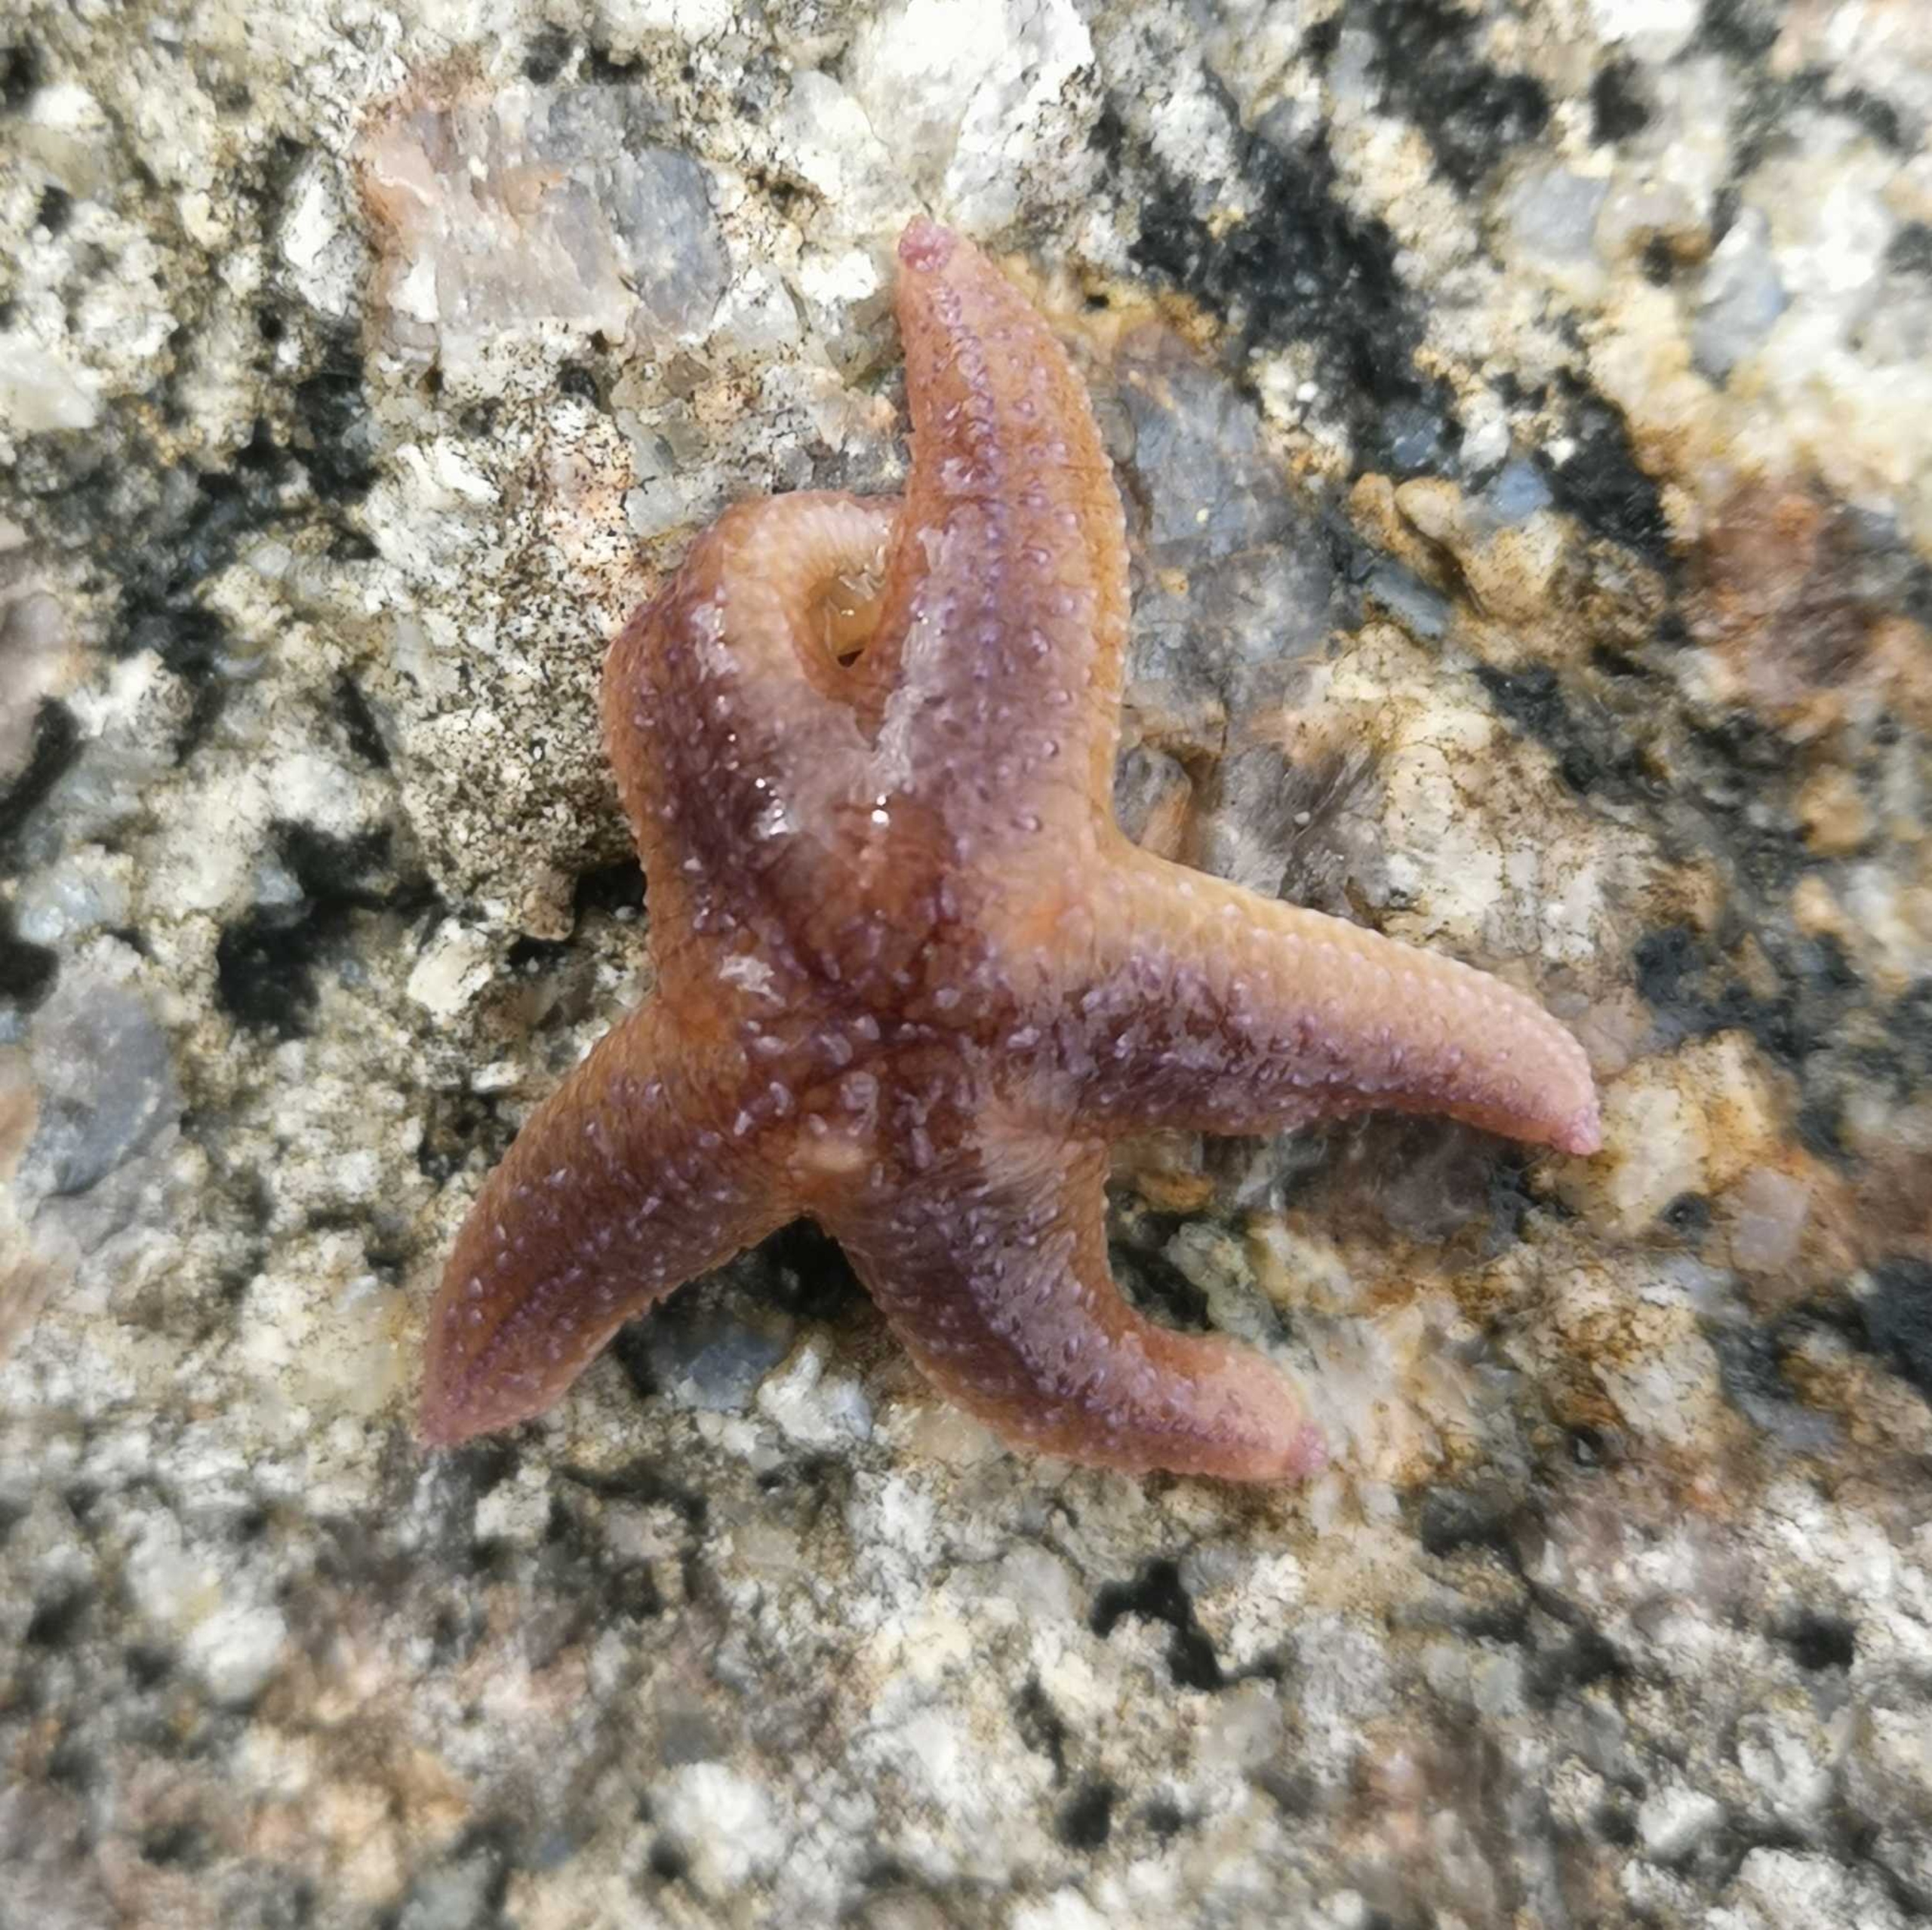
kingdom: Animalia
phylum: Echinodermata
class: Asteroidea
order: Forcipulatida
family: Asteriidae
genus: Asterias
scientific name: Asterias rubens
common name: Almindelig søstjerne
